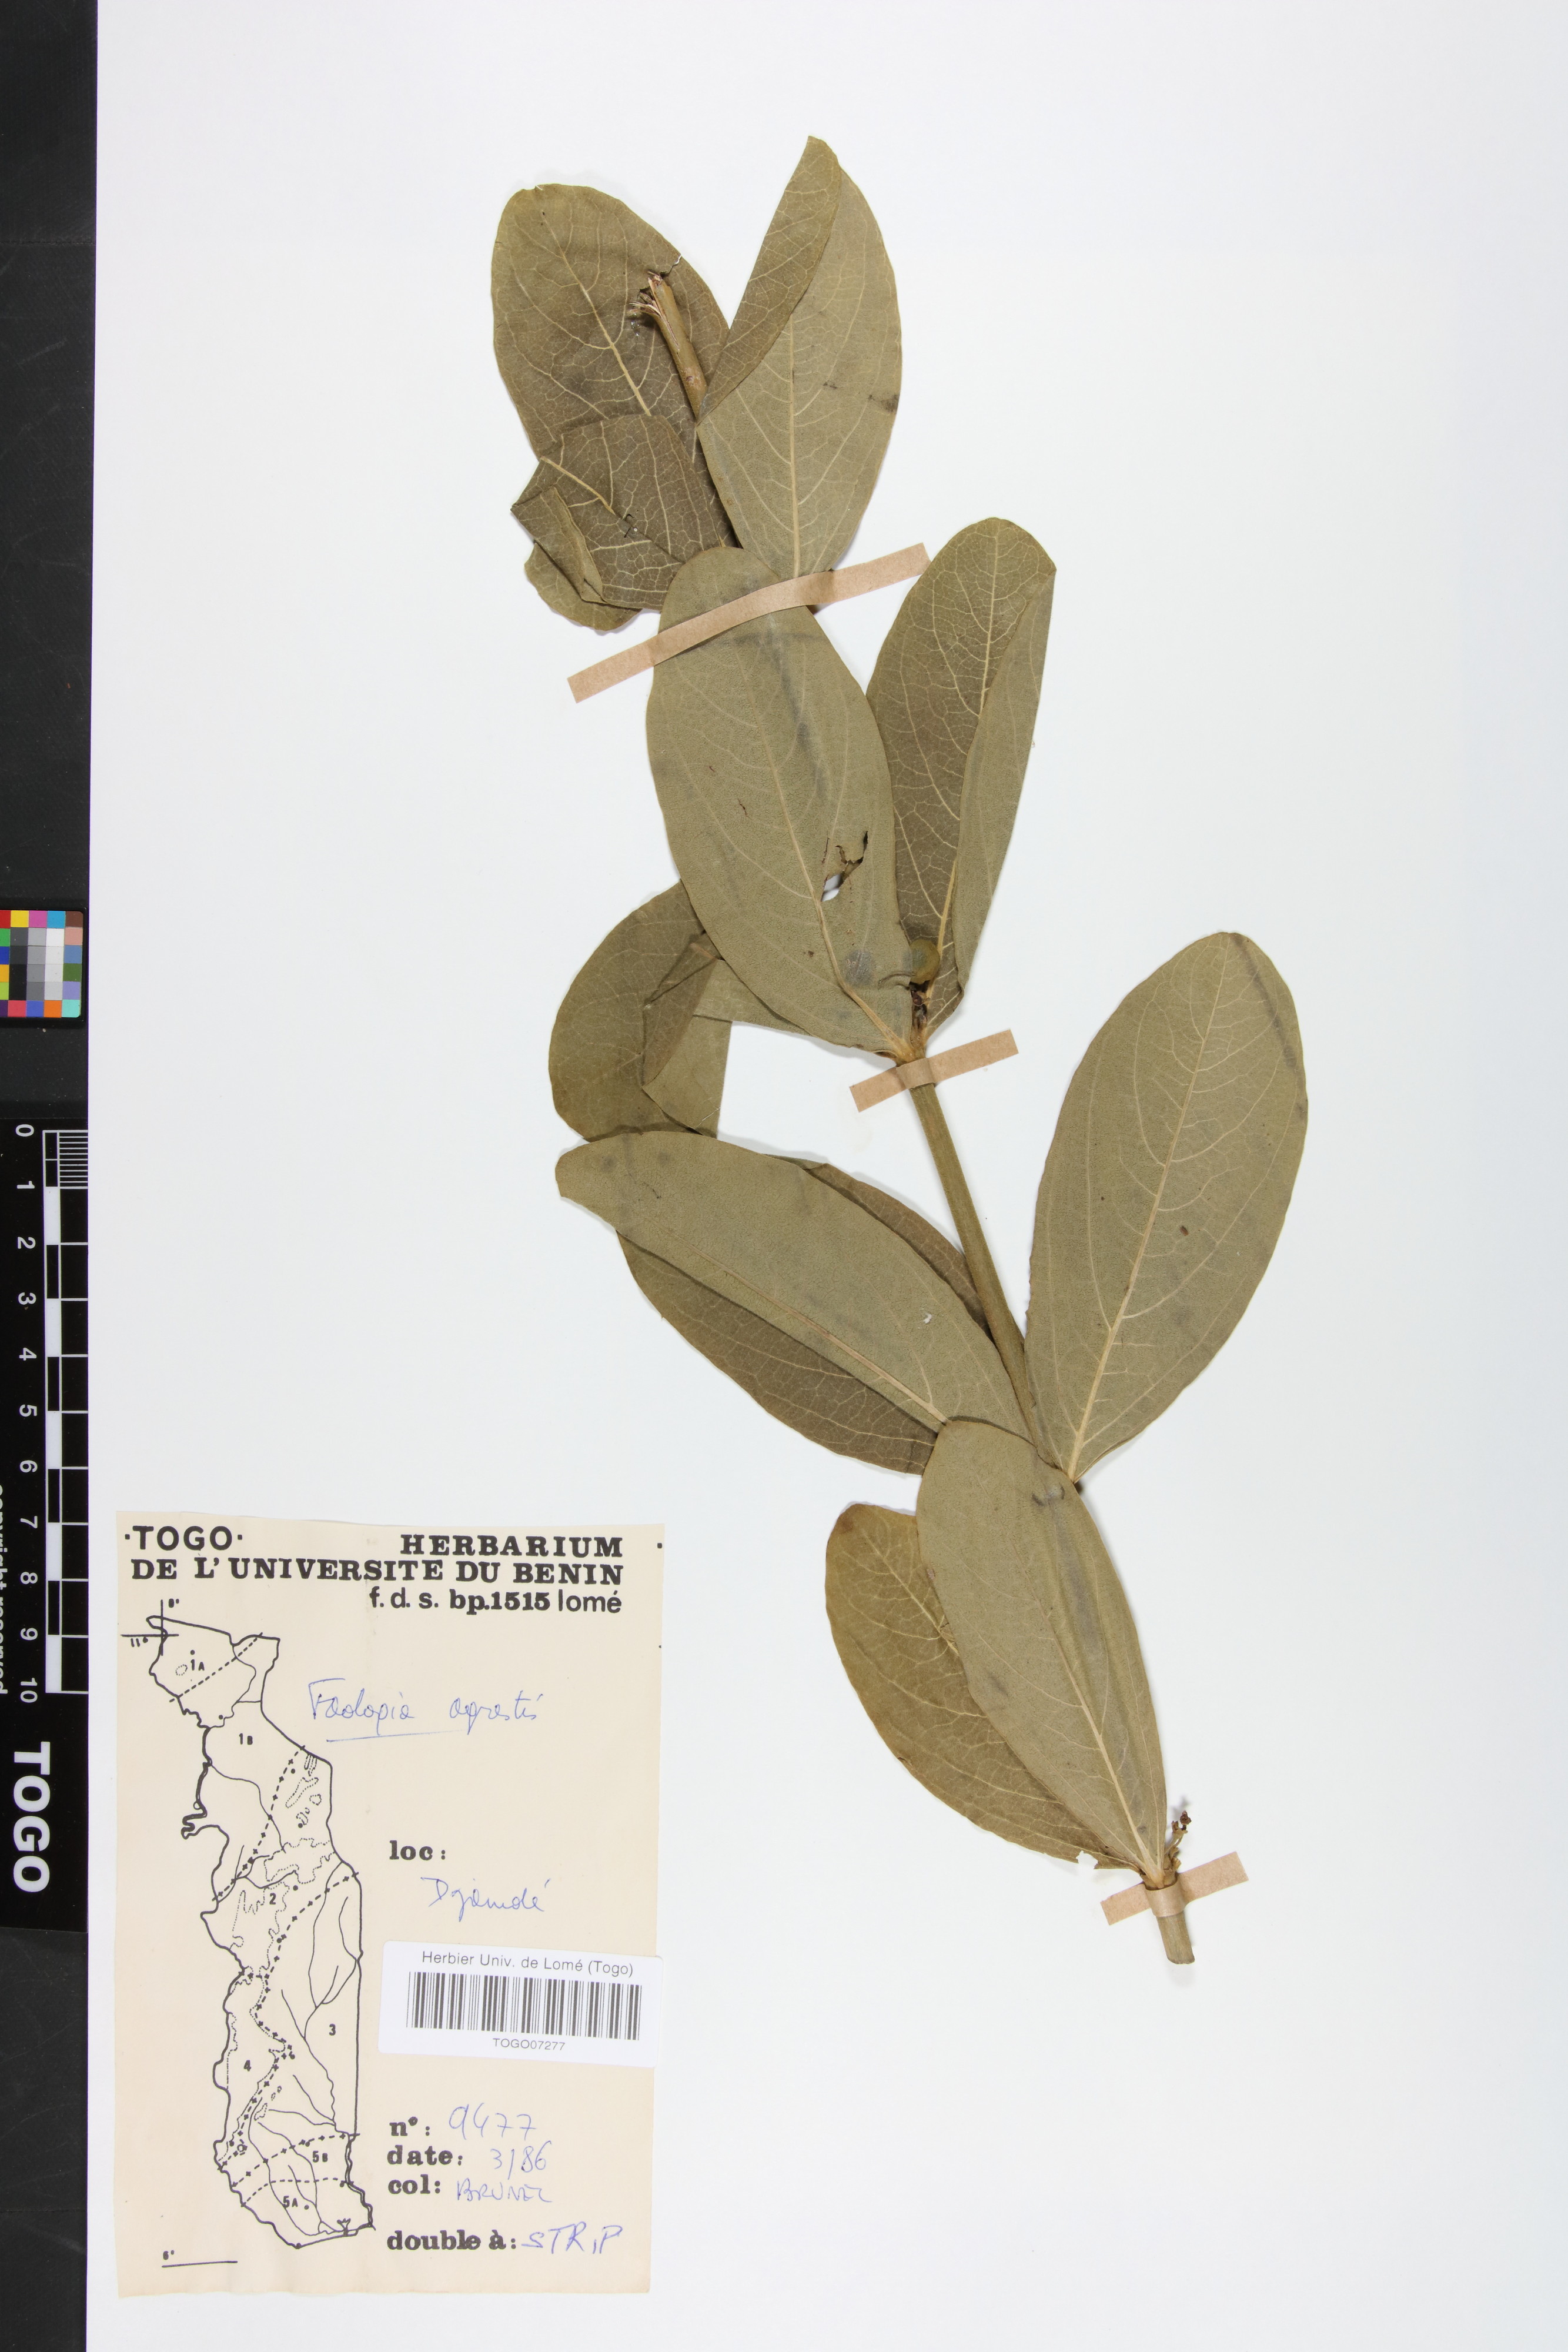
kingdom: Plantae
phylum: Tracheophyta
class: Magnoliopsida
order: Gentianales
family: Rubiaceae
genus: Vangueria
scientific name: Vangueria agrestis
